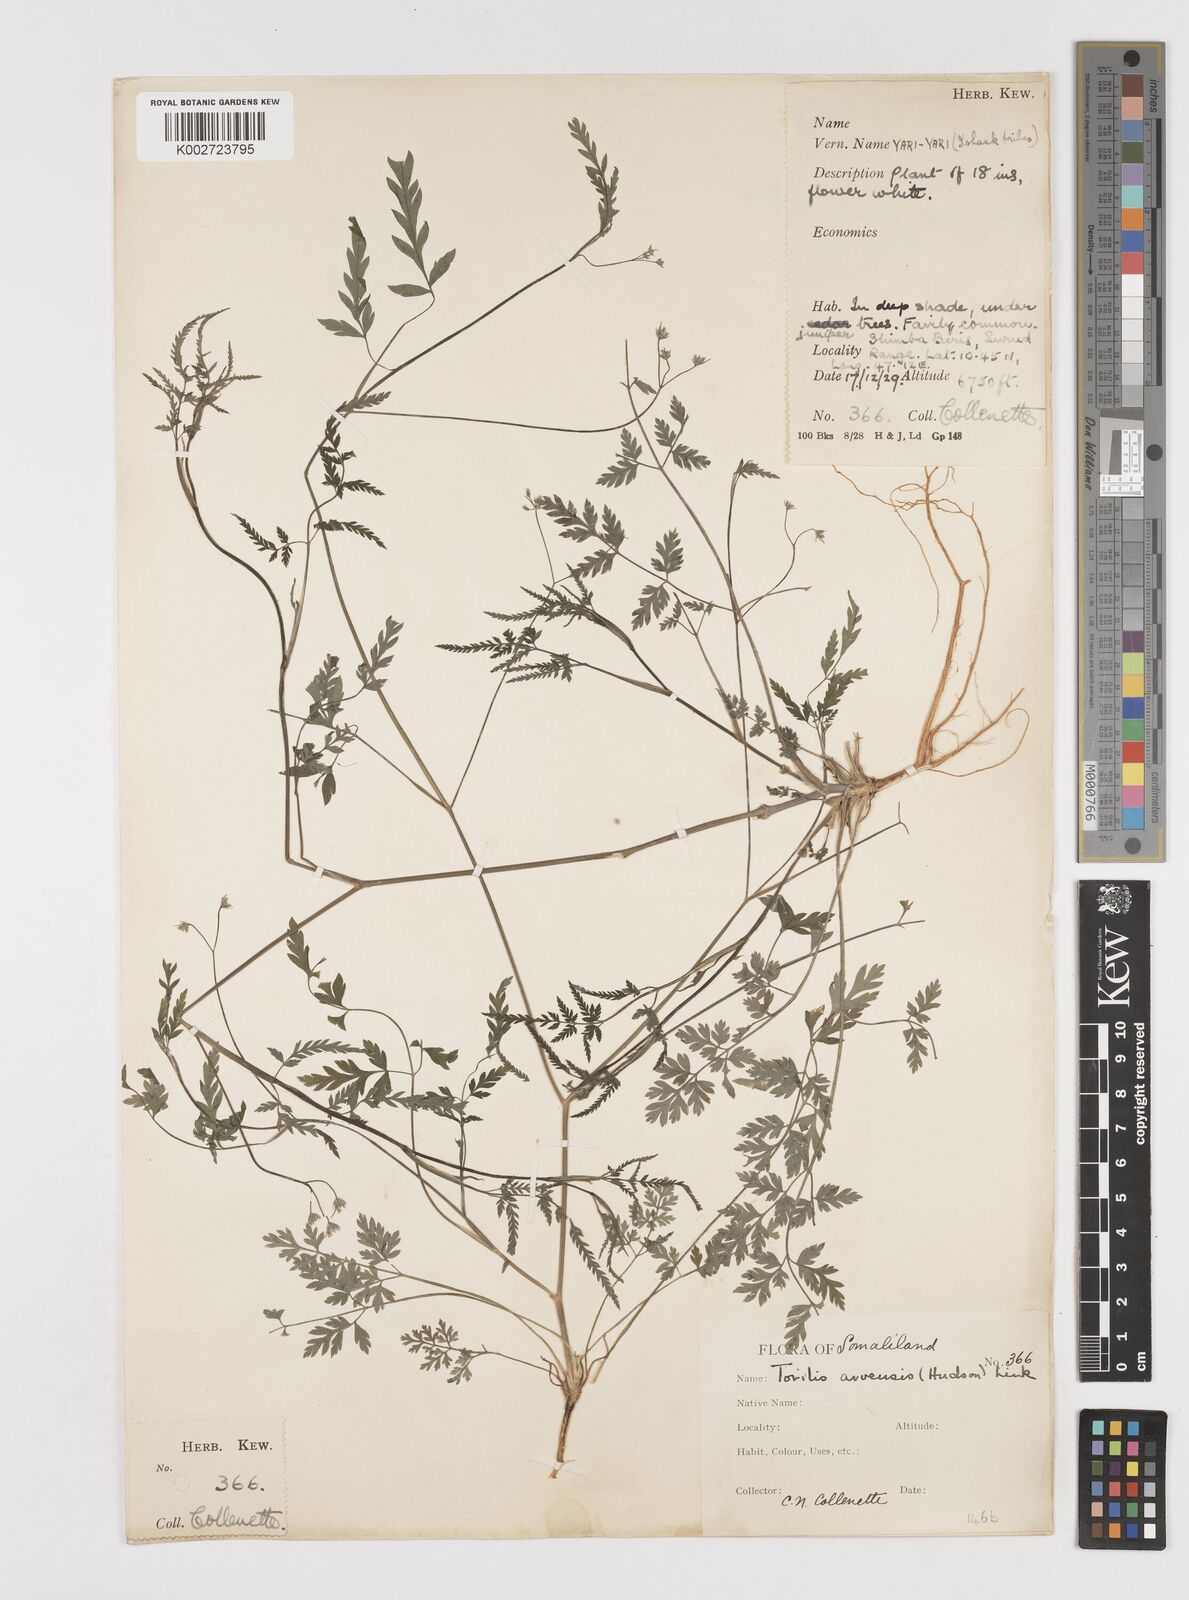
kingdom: Plantae
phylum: Tracheophyta
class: Magnoliopsida
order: Apiales
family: Apiaceae
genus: Torilis
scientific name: Torilis arvensis
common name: Spreading hedge-parsley
